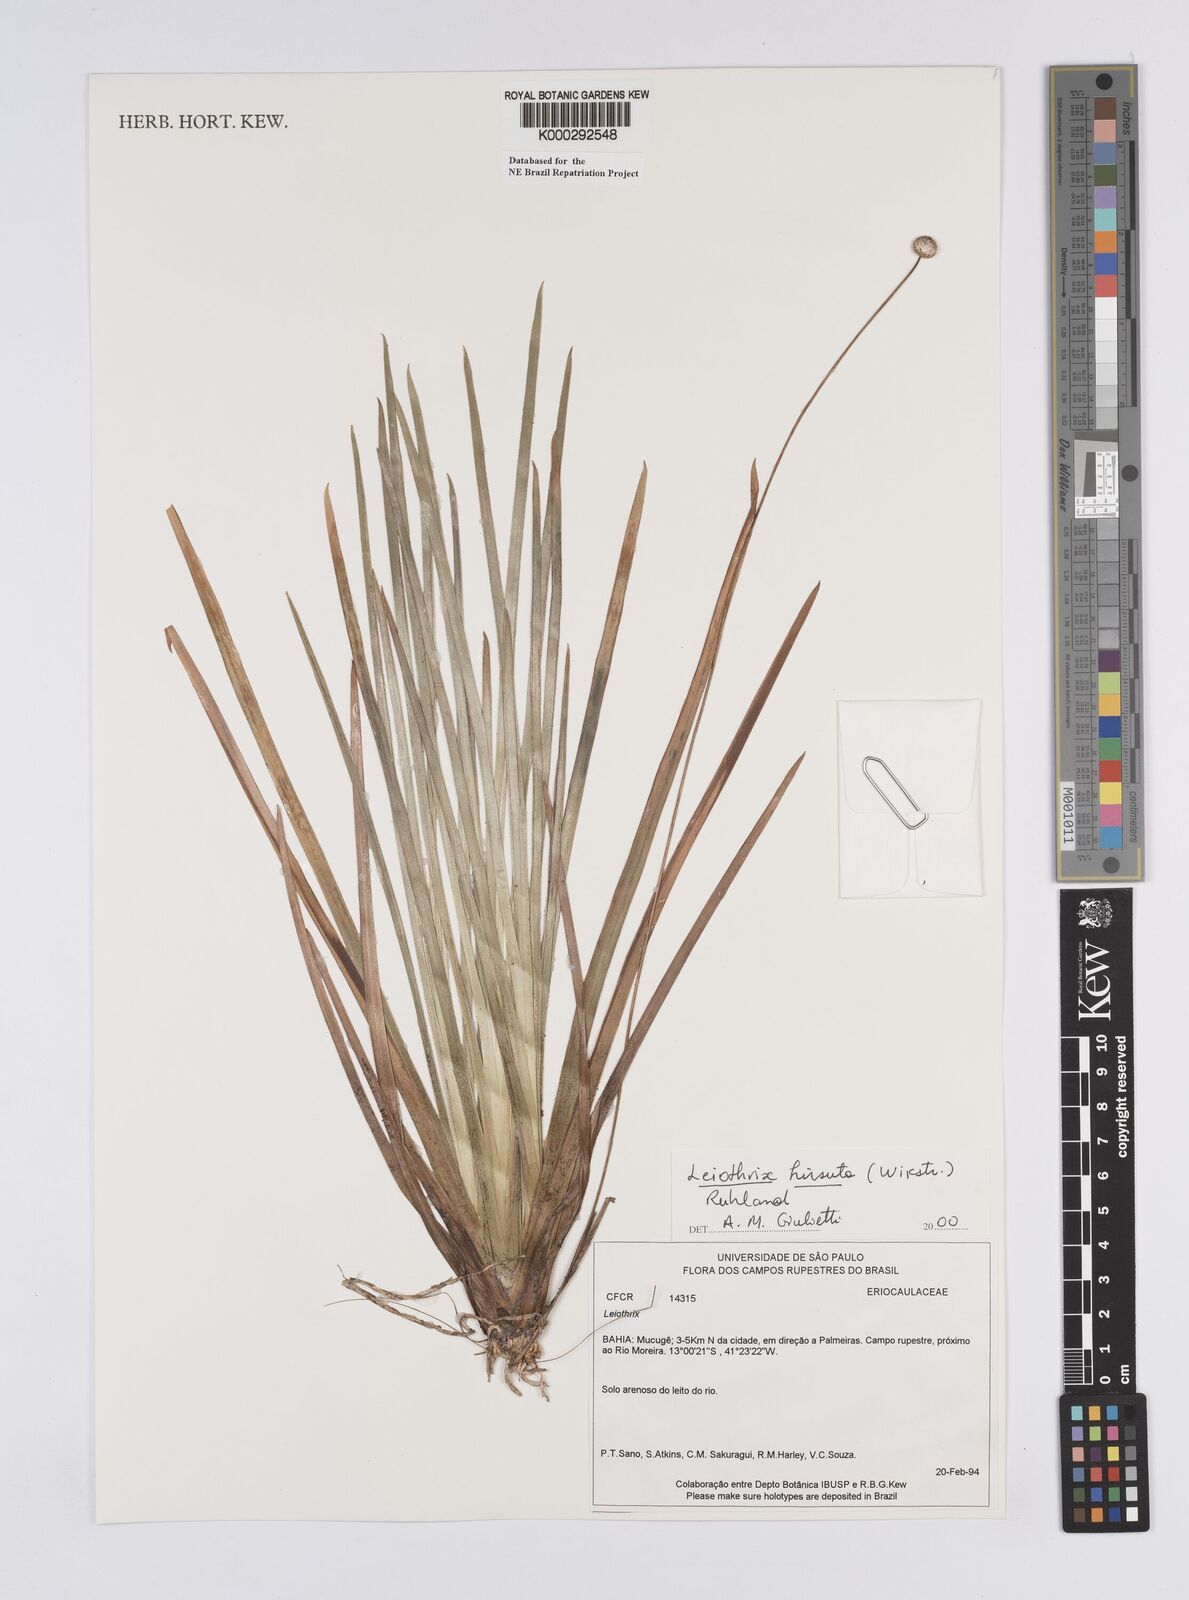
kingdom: Plantae
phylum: Tracheophyta
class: Liliopsida
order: Poales
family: Eriocaulaceae
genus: Leiothrix
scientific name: Leiothrix hirsuta
